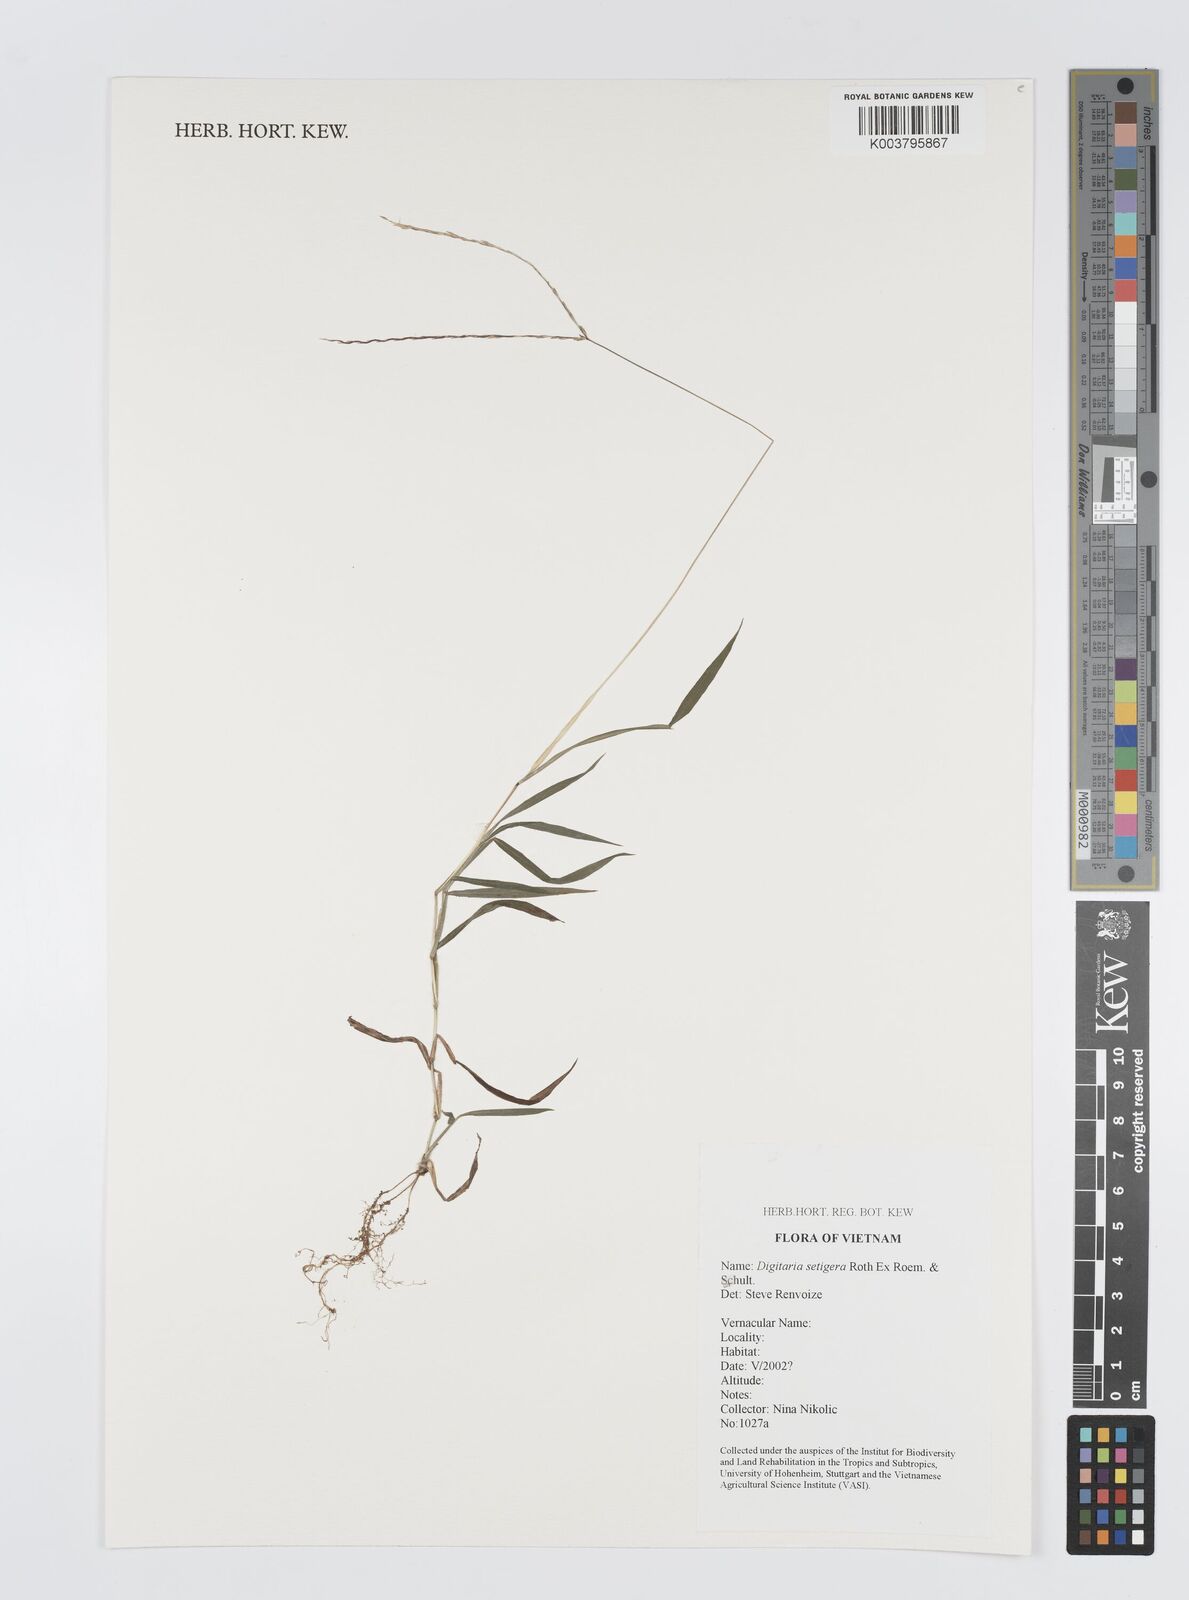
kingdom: Plantae
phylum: Tracheophyta
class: Liliopsida
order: Poales
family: Poaceae
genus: Digitaria
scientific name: Digitaria setigera
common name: East indian crabgrass
